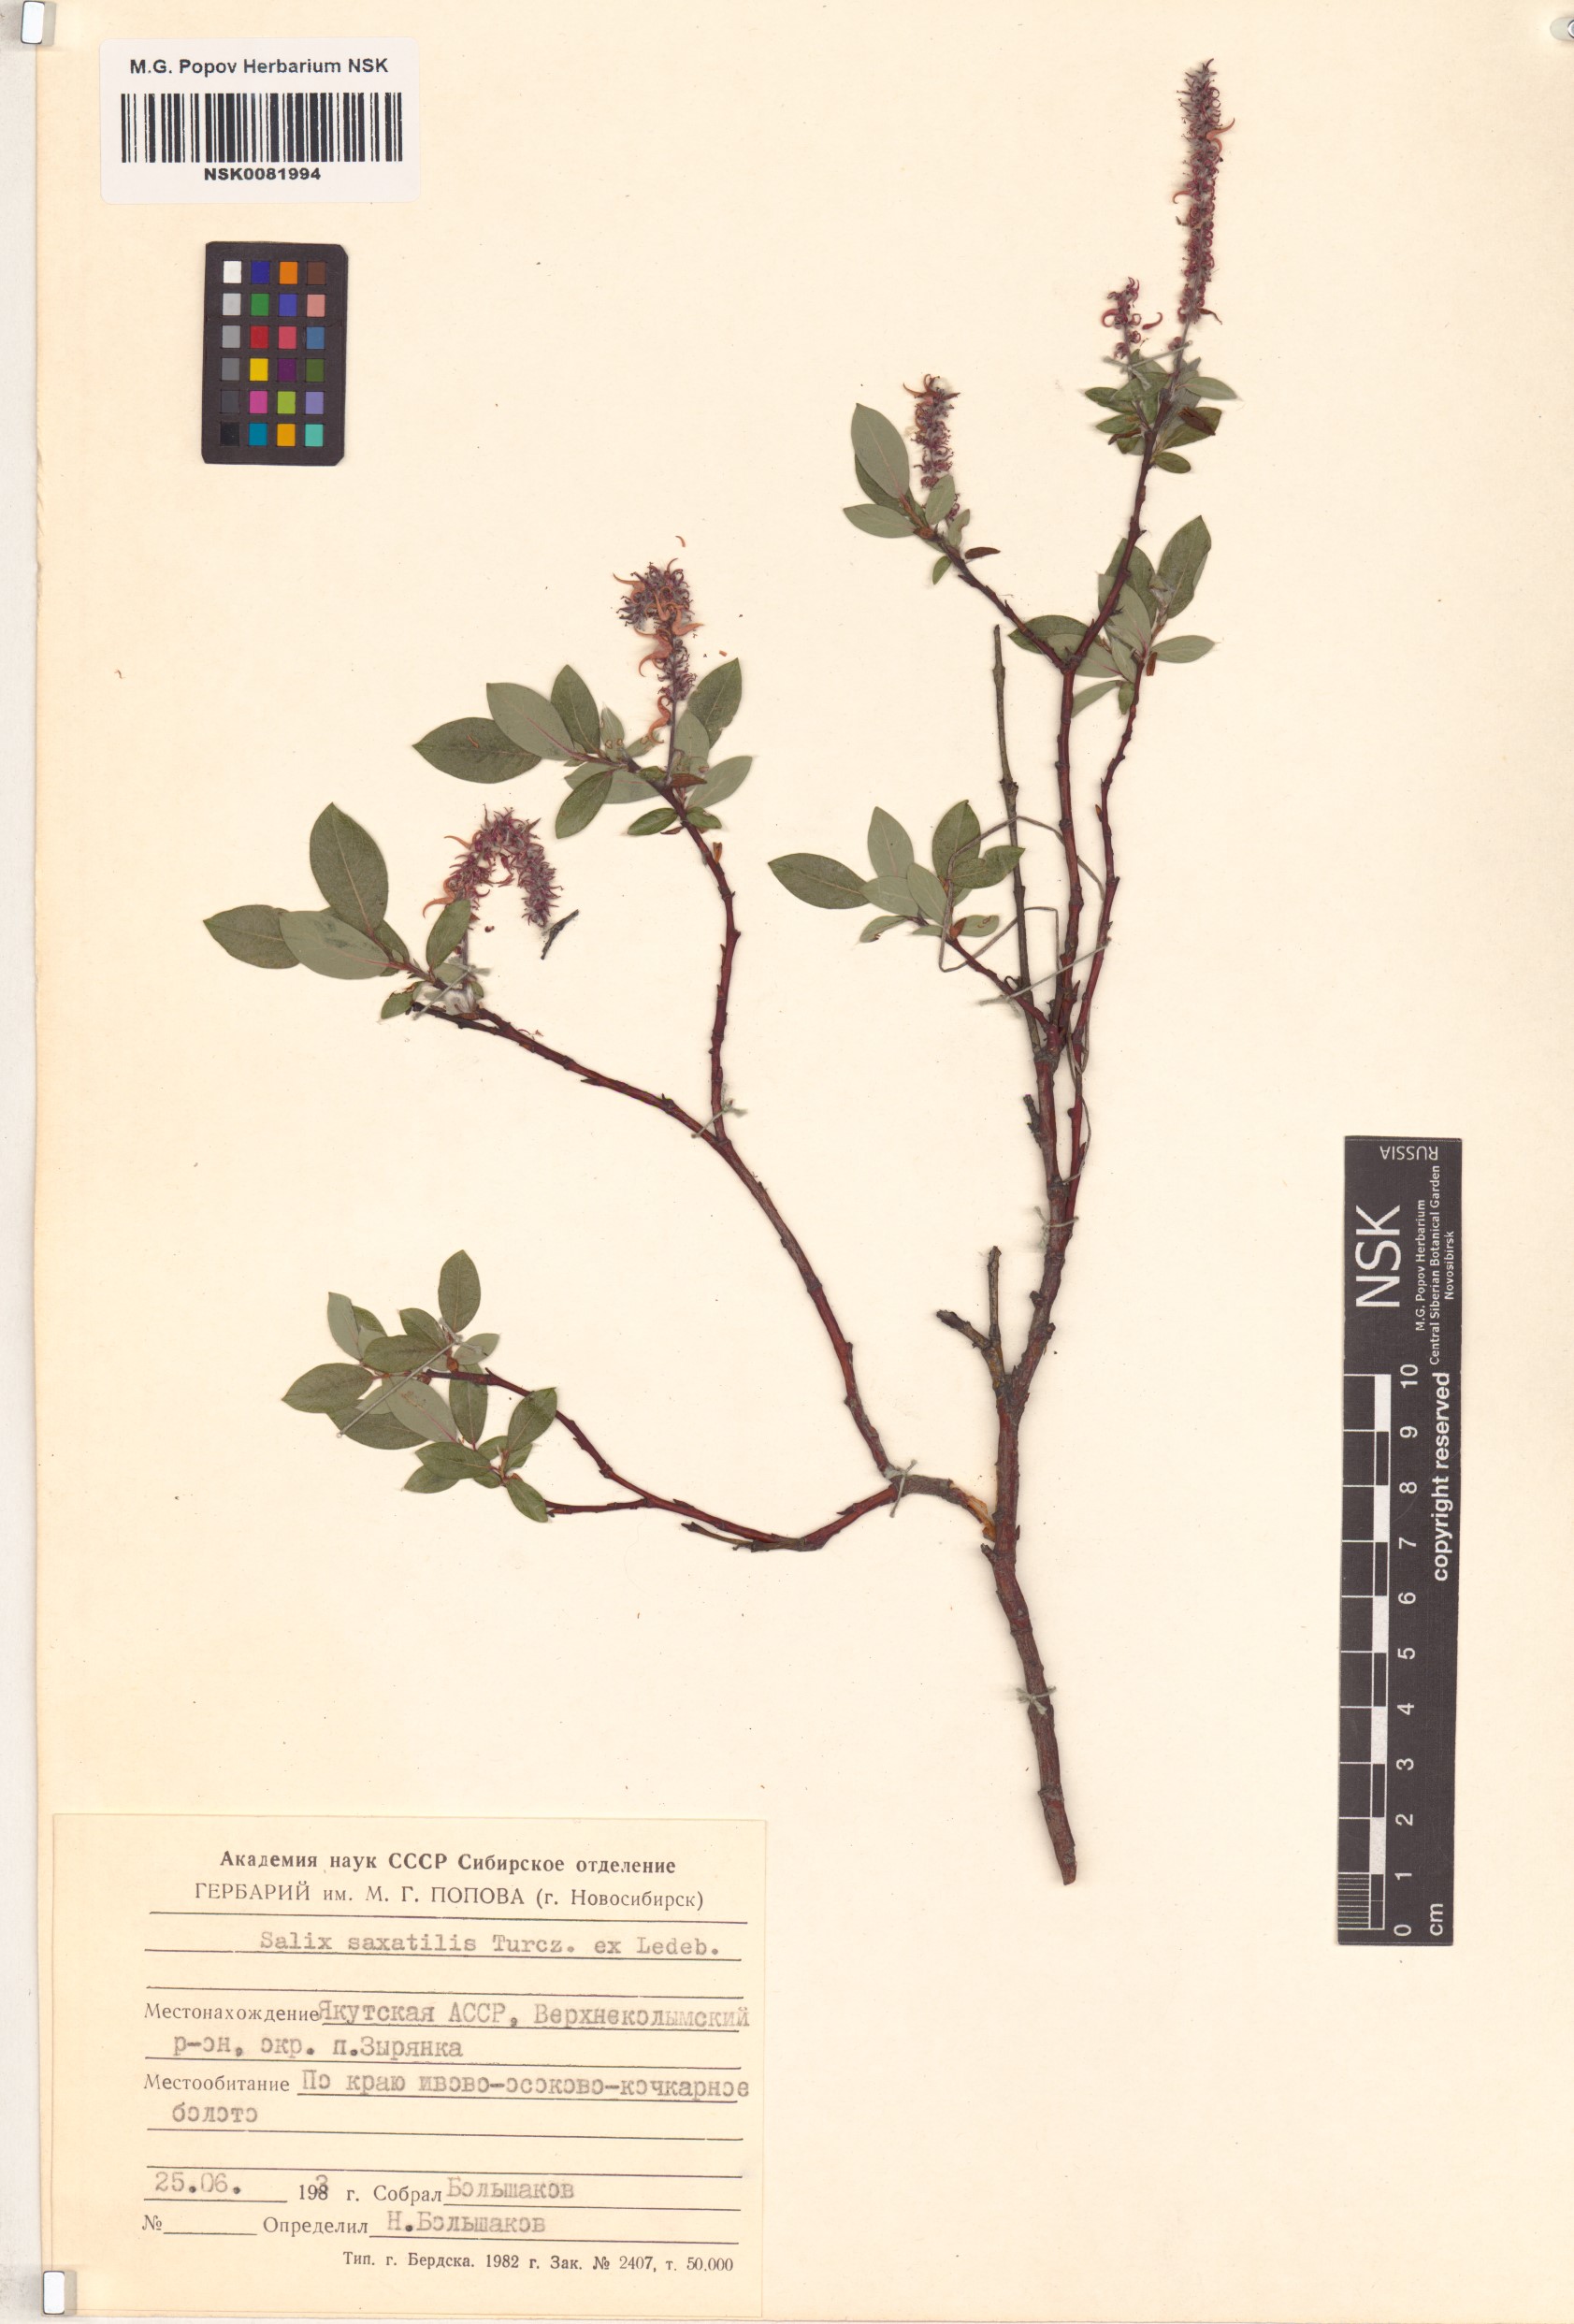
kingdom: Plantae
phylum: Tracheophyta
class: Magnoliopsida
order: Malpighiales
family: Salicaceae
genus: Salix
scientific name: Salix saxatilis
